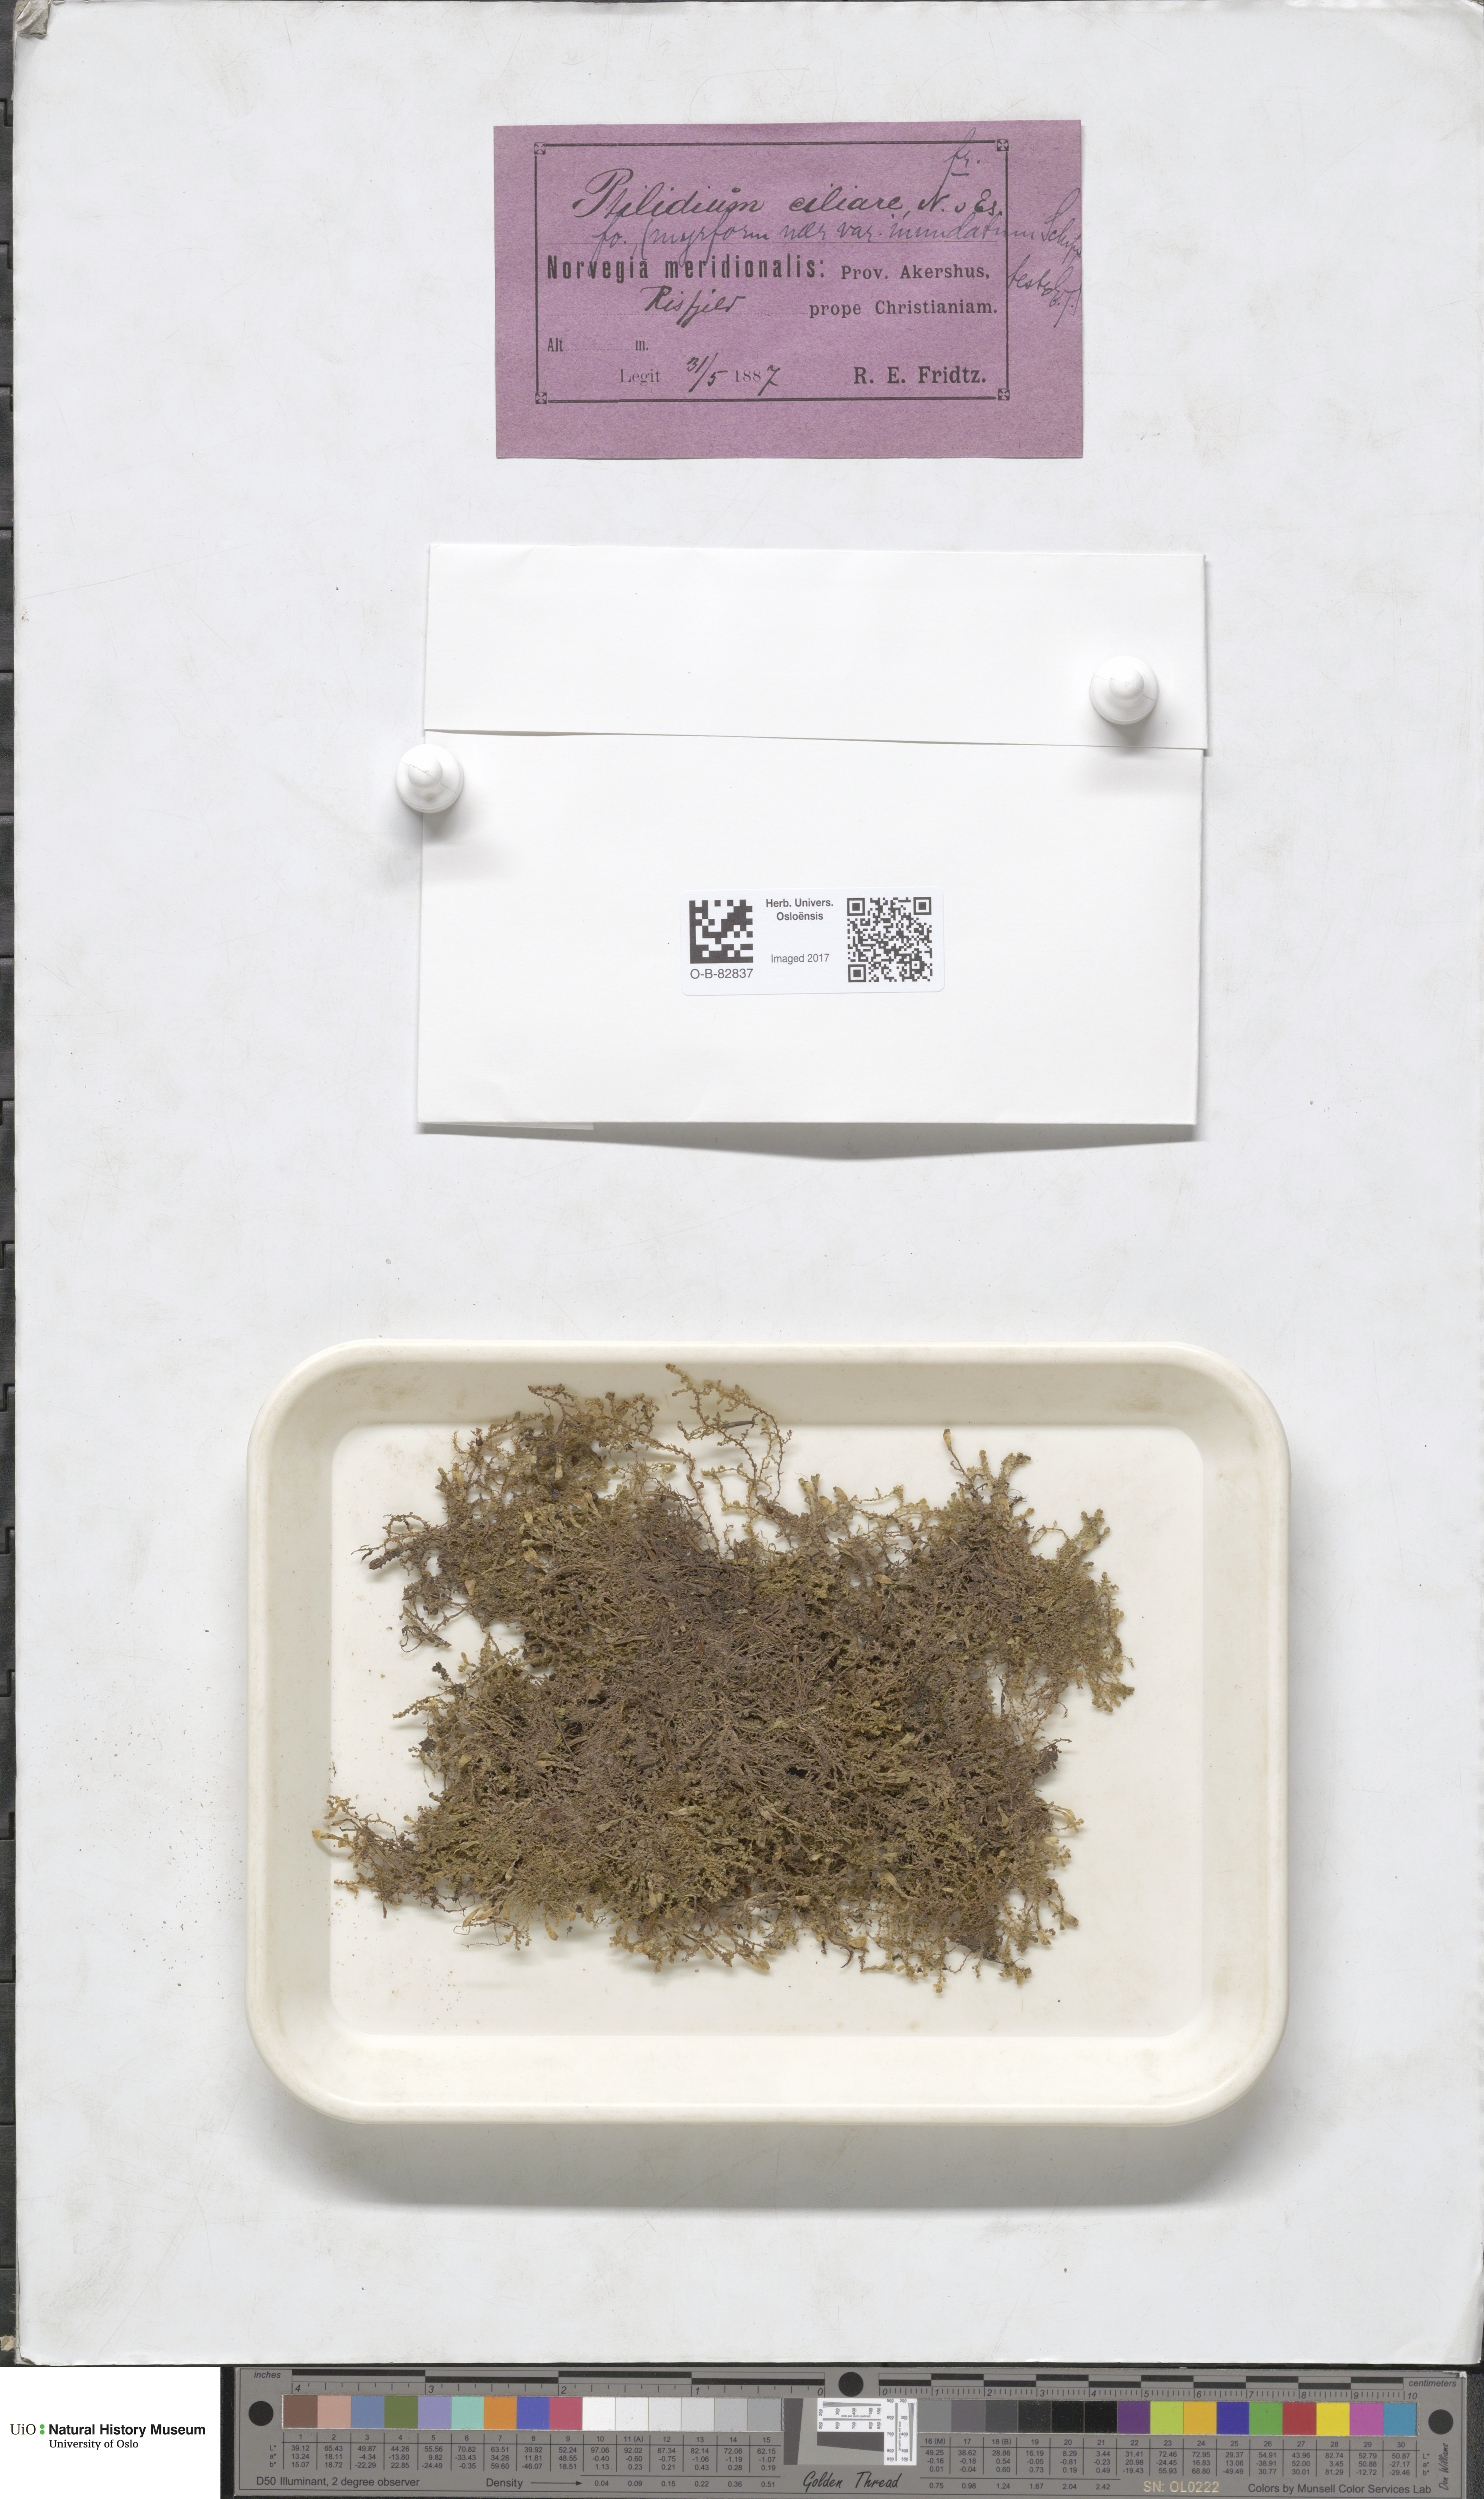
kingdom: Plantae
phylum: Marchantiophyta
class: Jungermanniopsida
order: Ptilidiales
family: Ptilidiaceae
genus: Ptilidium
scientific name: Ptilidium ciliare
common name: Ciliate fringewort
